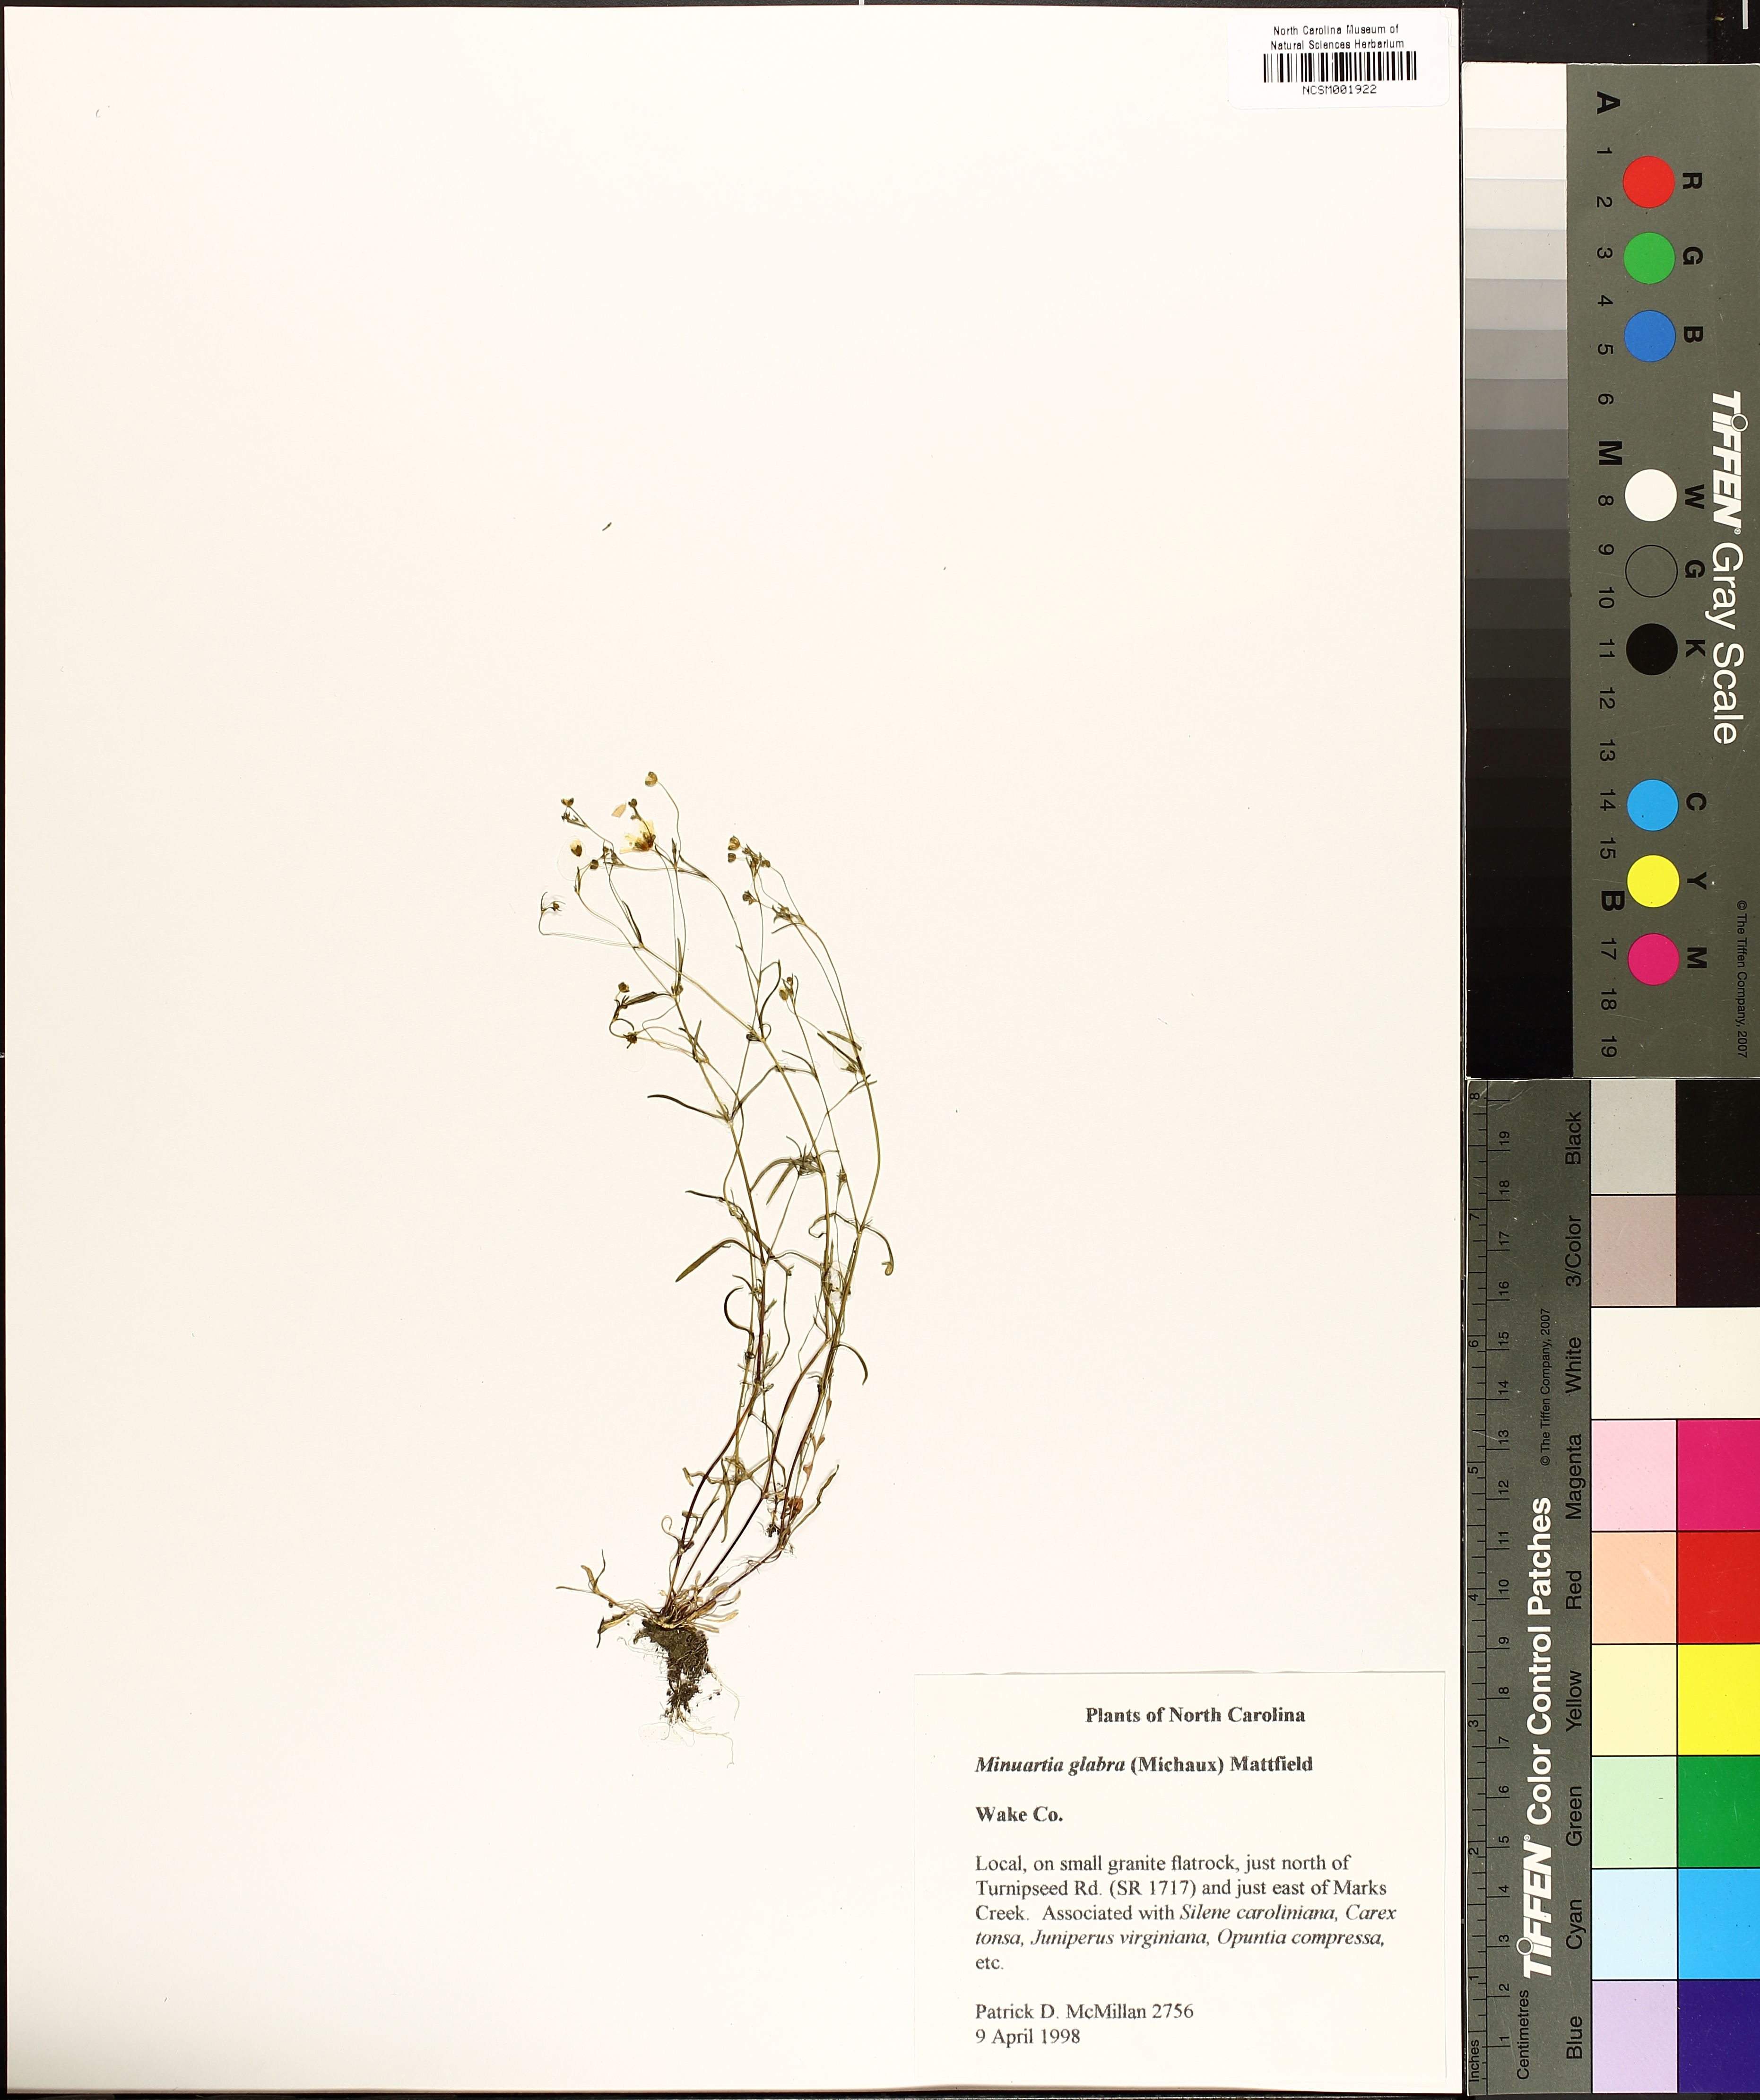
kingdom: Plantae
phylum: Tracheophyta
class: Magnoliopsida
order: Caryophyllales
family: Caryophyllaceae
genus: Geocarpon
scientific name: Geocarpon glabrum
